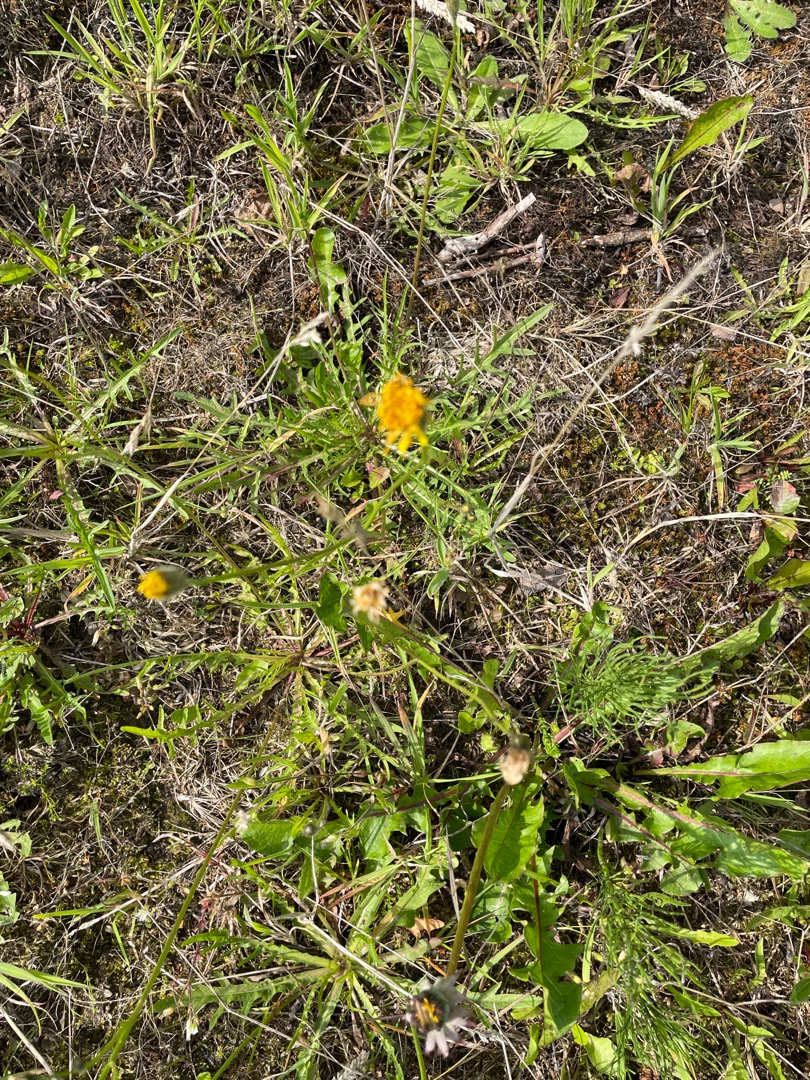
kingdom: Plantae
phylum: Tracheophyta
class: Magnoliopsida
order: Asterales
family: Asteraceae
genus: Scorzoneroides
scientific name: Scorzoneroides autumnalis
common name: Høst-borst
